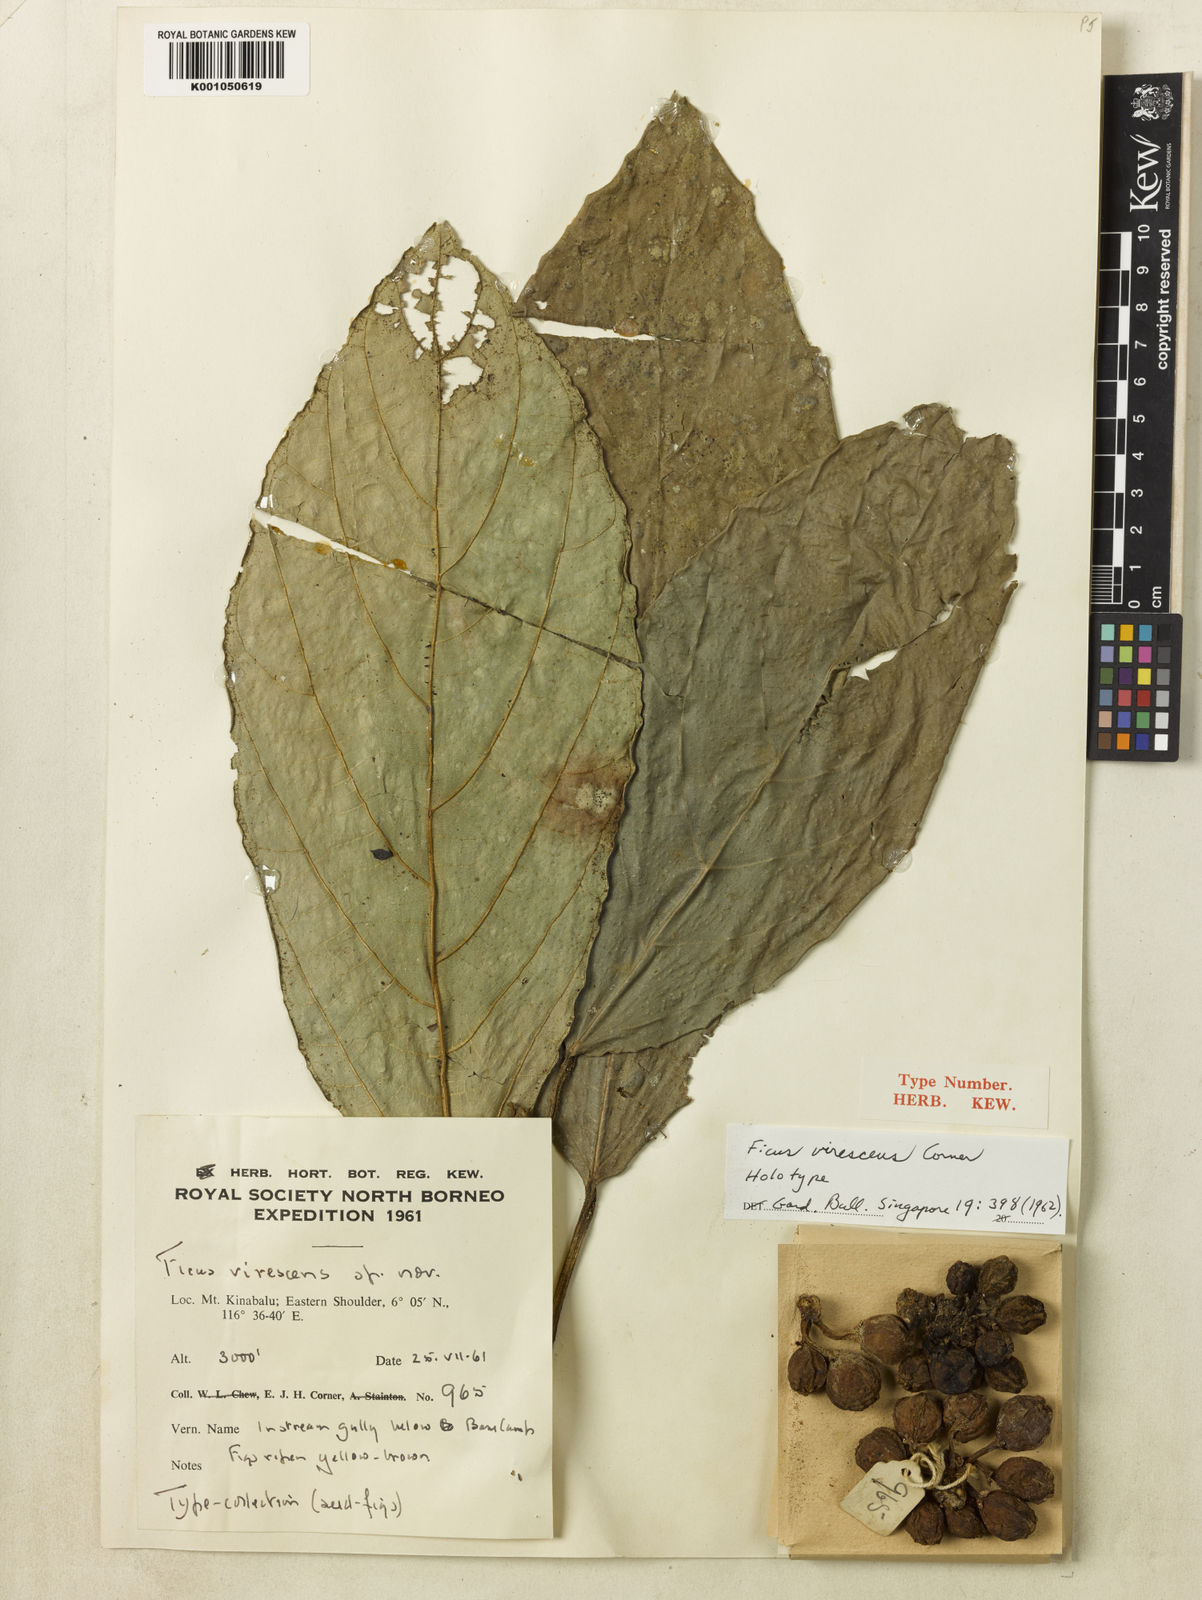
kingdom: Plantae
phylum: Tracheophyta
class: Magnoliopsida
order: Rosales
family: Moraceae
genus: Ficus
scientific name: Ficus virescens
